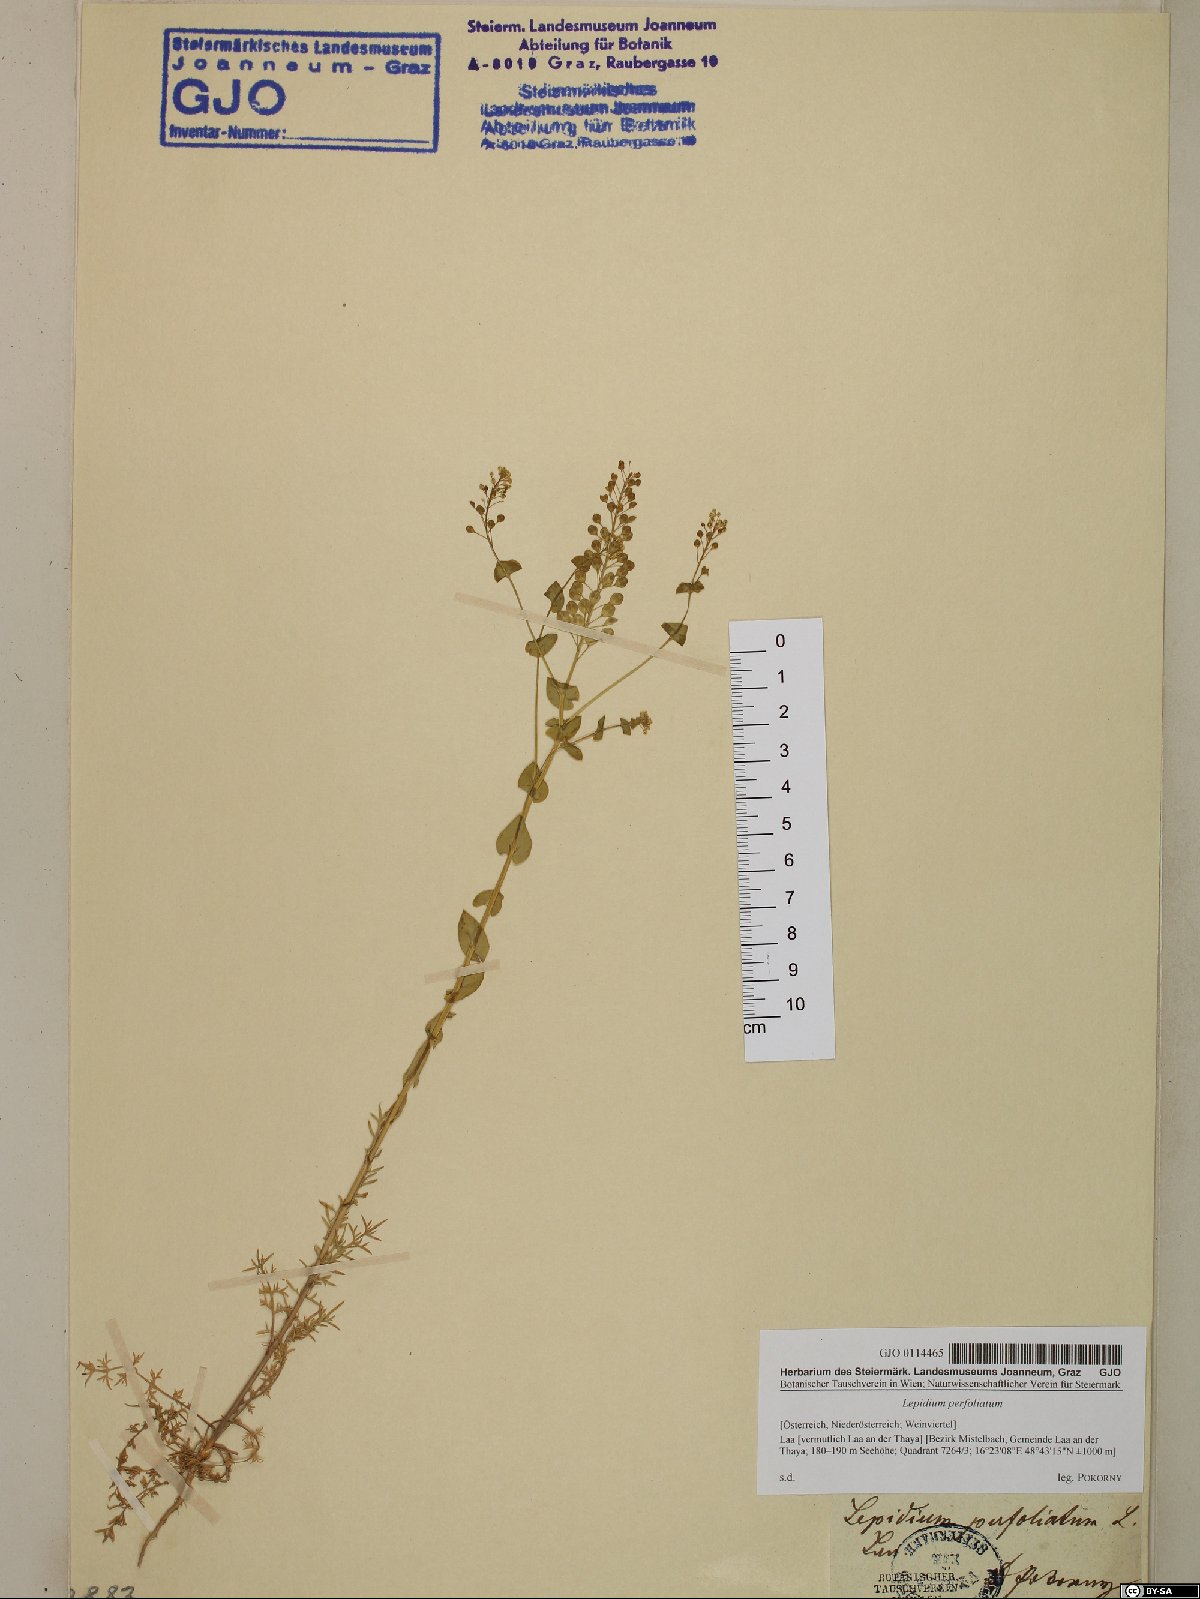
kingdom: Plantae
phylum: Tracheophyta
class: Magnoliopsida
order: Brassicales
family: Brassicaceae
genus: Lepidium
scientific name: Lepidium perfoliatum
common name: Perfoliate pepperwort
